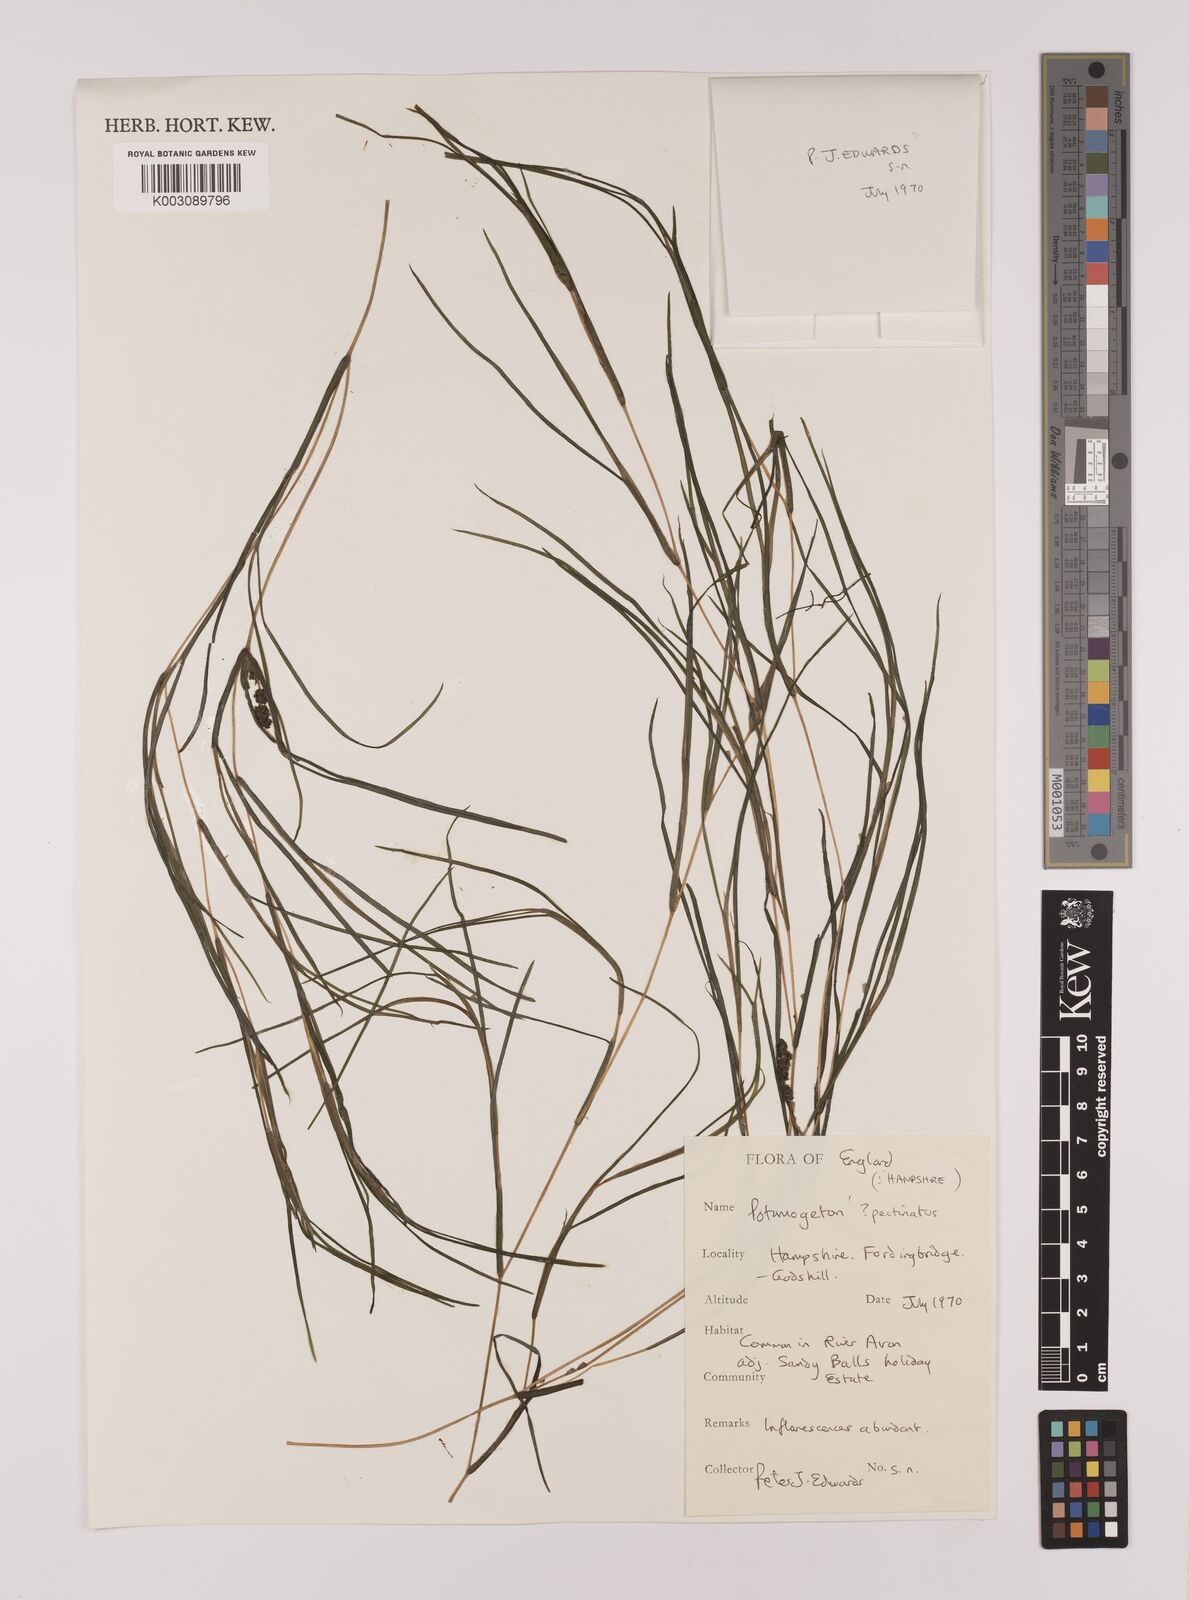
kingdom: Plantae
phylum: Tracheophyta
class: Liliopsida
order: Alismatales
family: Potamogetonaceae
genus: Stuckenia
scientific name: Stuckenia pectinata
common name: Sago pondweed
